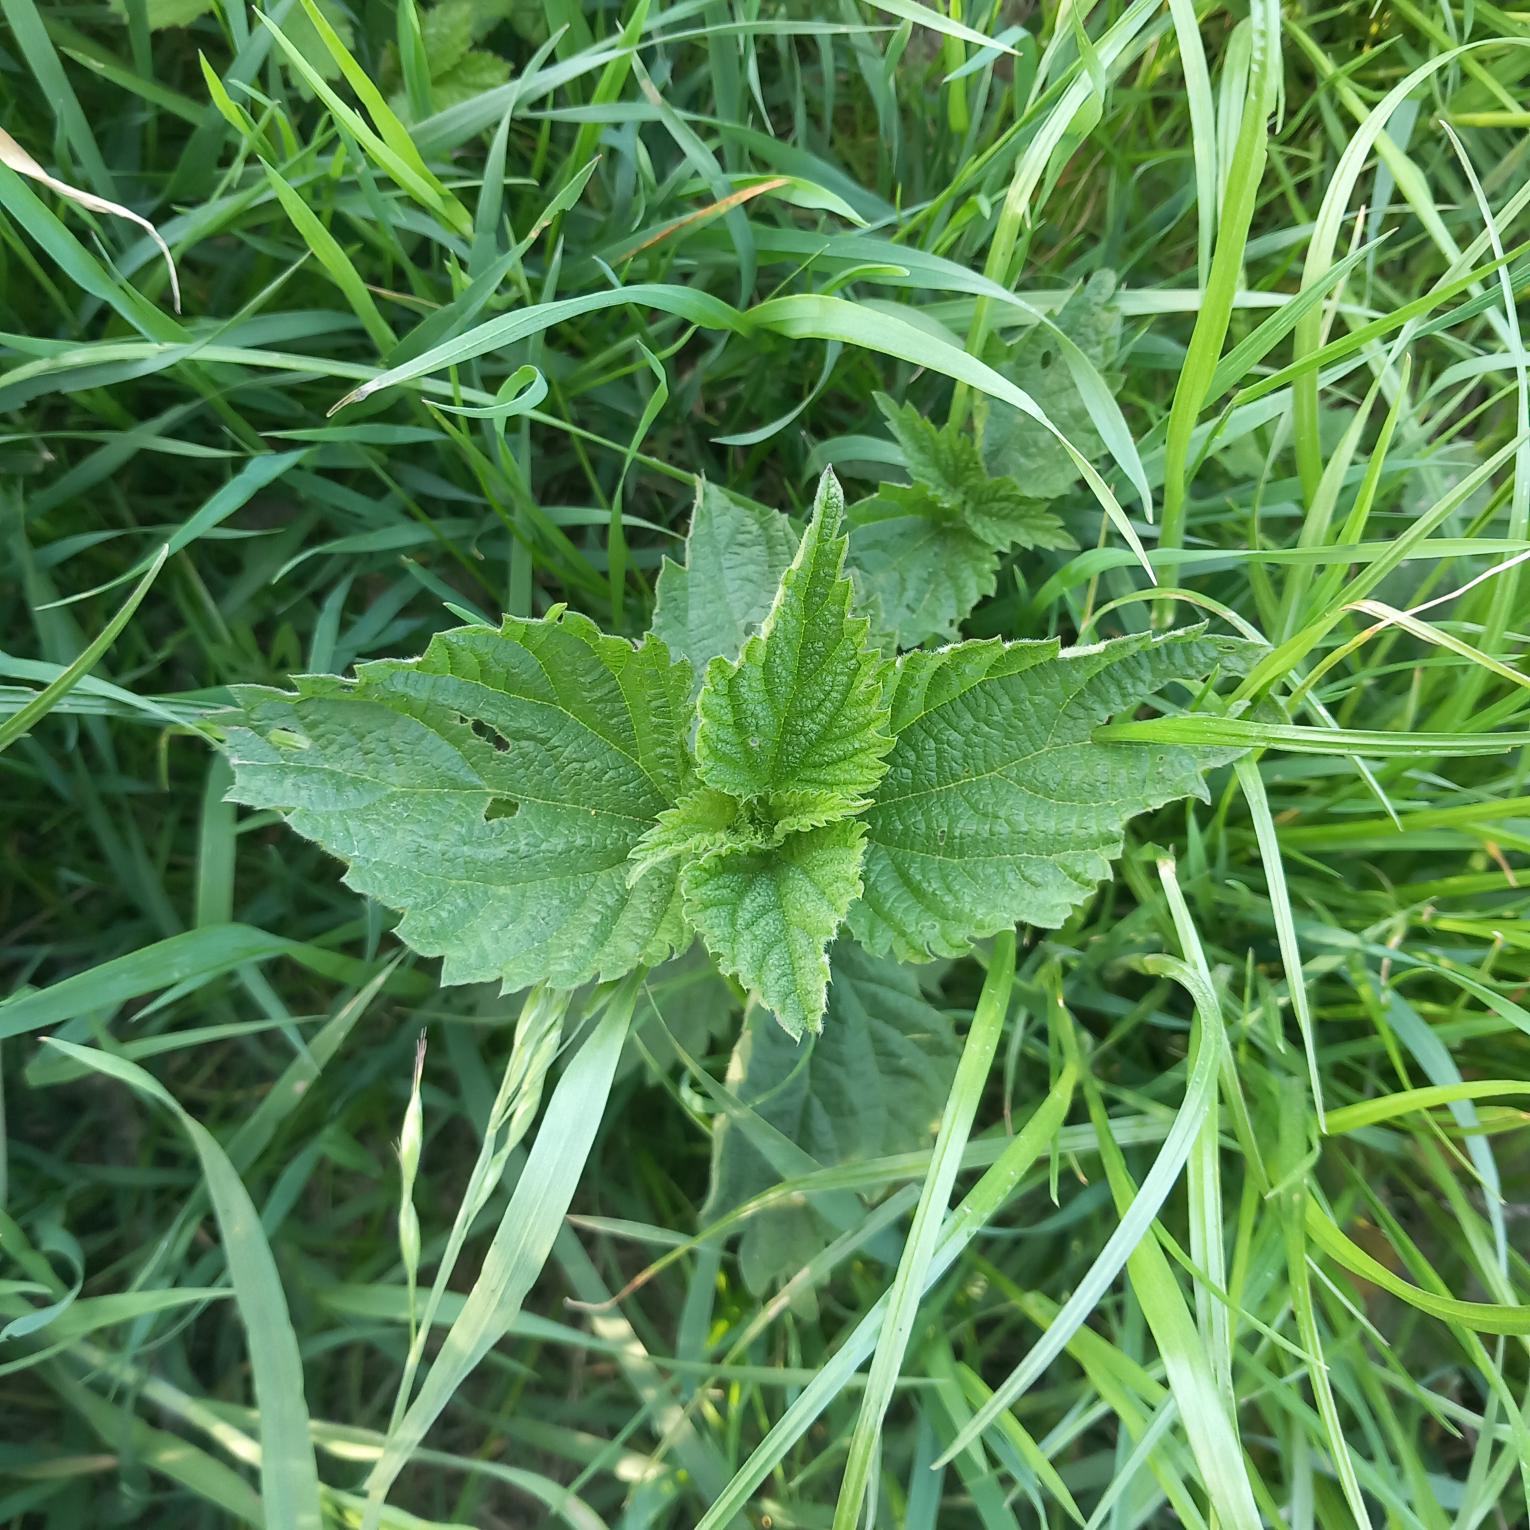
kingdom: Plantae
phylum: Tracheophyta
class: Magnoliopsida
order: Rosales
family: Urticaceae
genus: Urtica
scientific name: Urtica dioica
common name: Stor nælde
